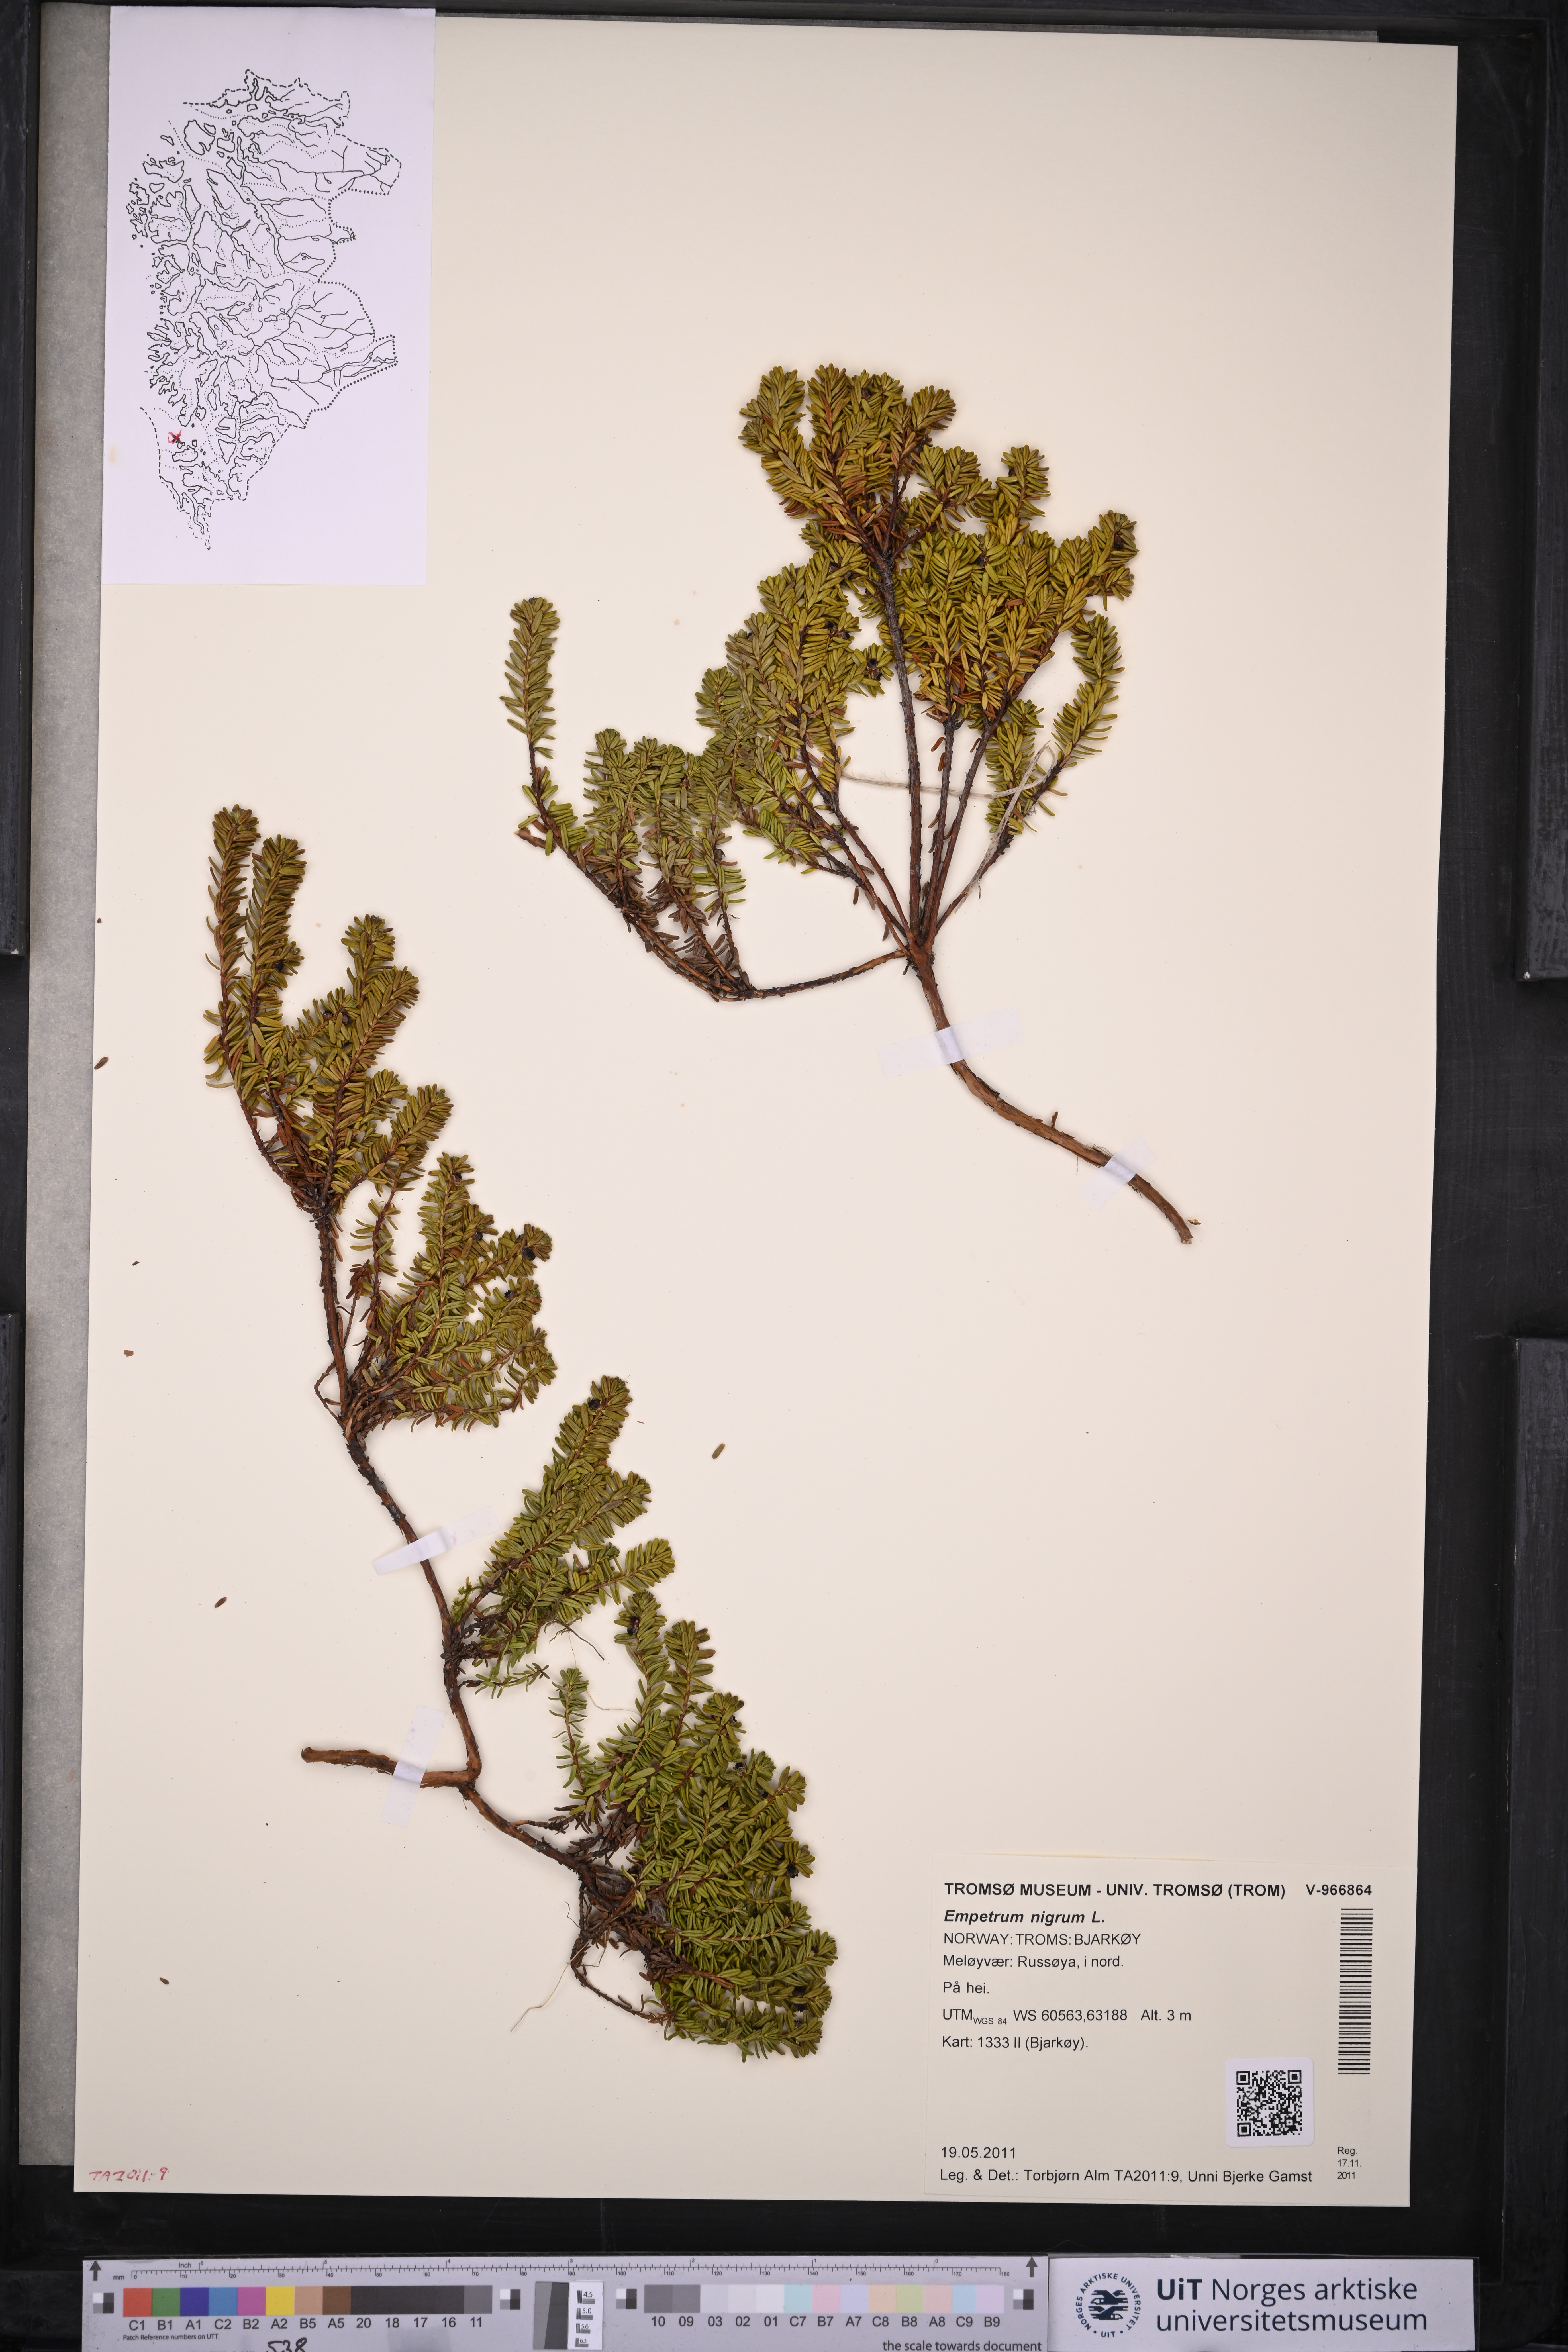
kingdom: Plantae
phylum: Tracheophyta
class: Magnoliopsida
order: Ericales
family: Ericaceae
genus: Empetrum
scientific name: Empetrum nigrum
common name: Black crowberry
